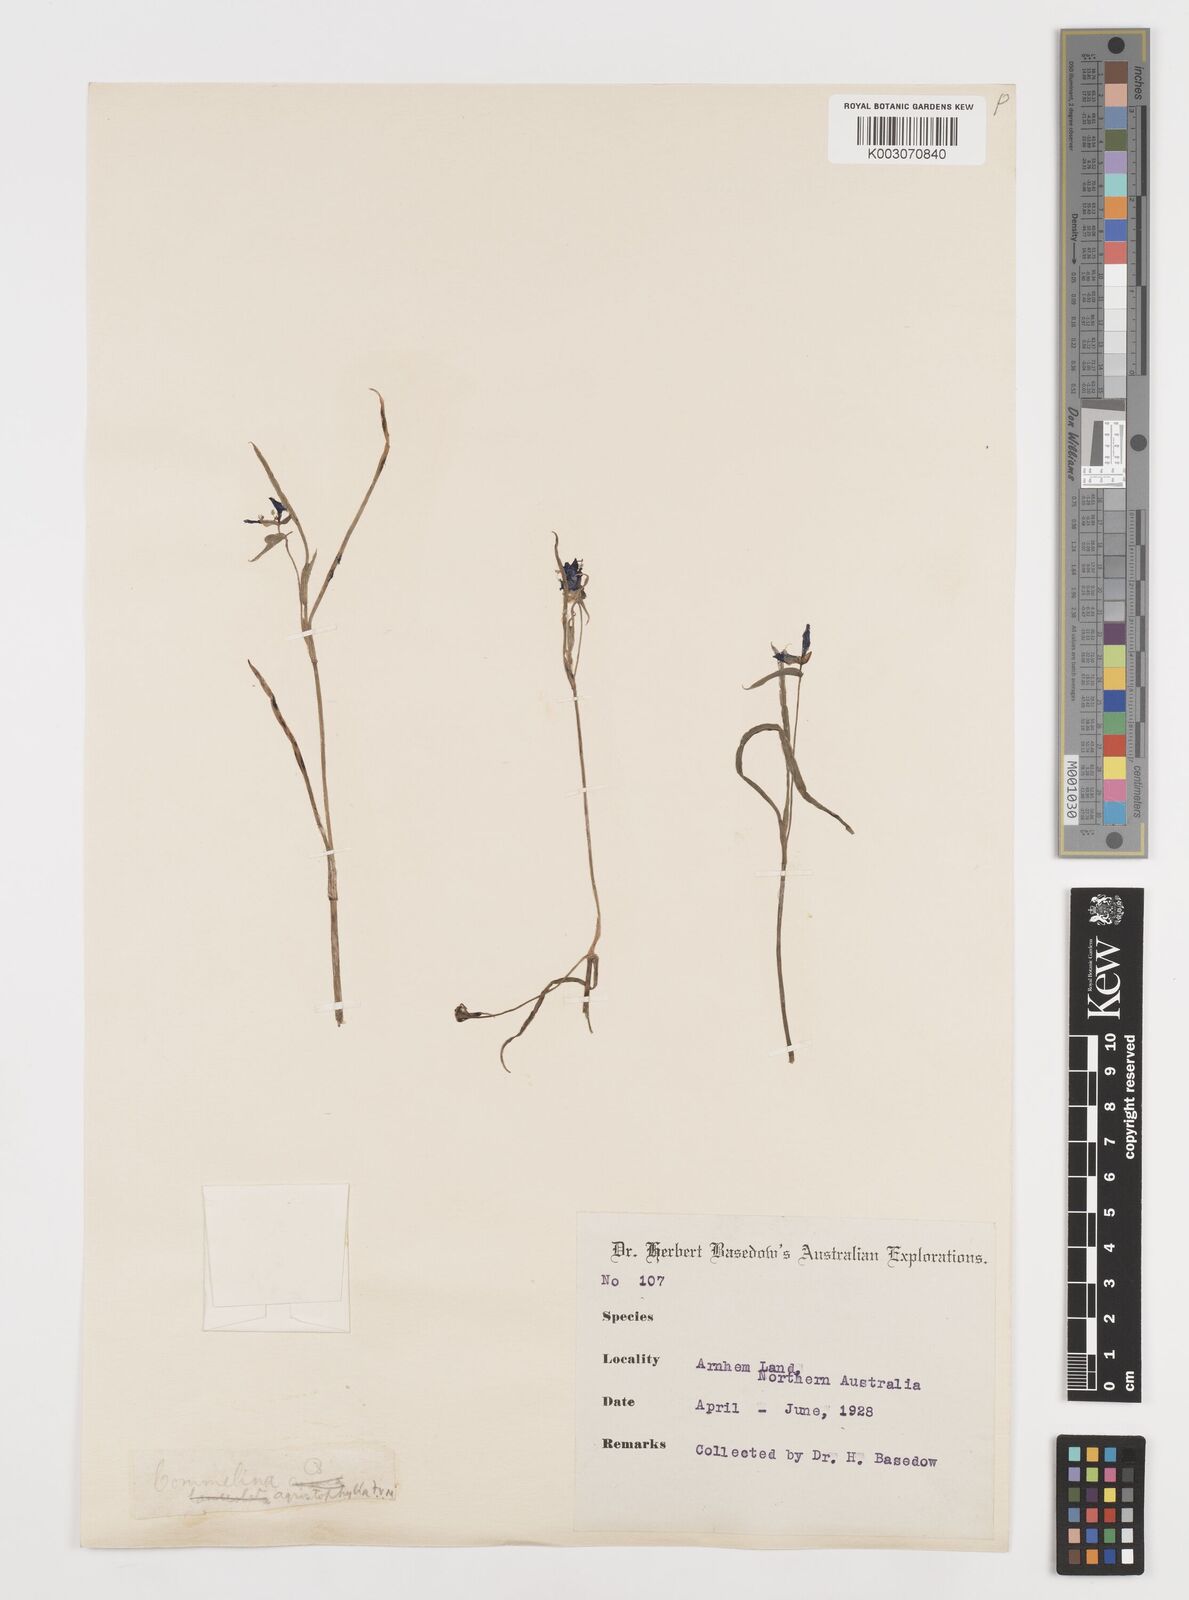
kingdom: Plantae
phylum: Tracheophyta
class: Liliopsida
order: Commelinales
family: Commelinaceae
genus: Commelina
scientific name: Commelina agrostophylla
